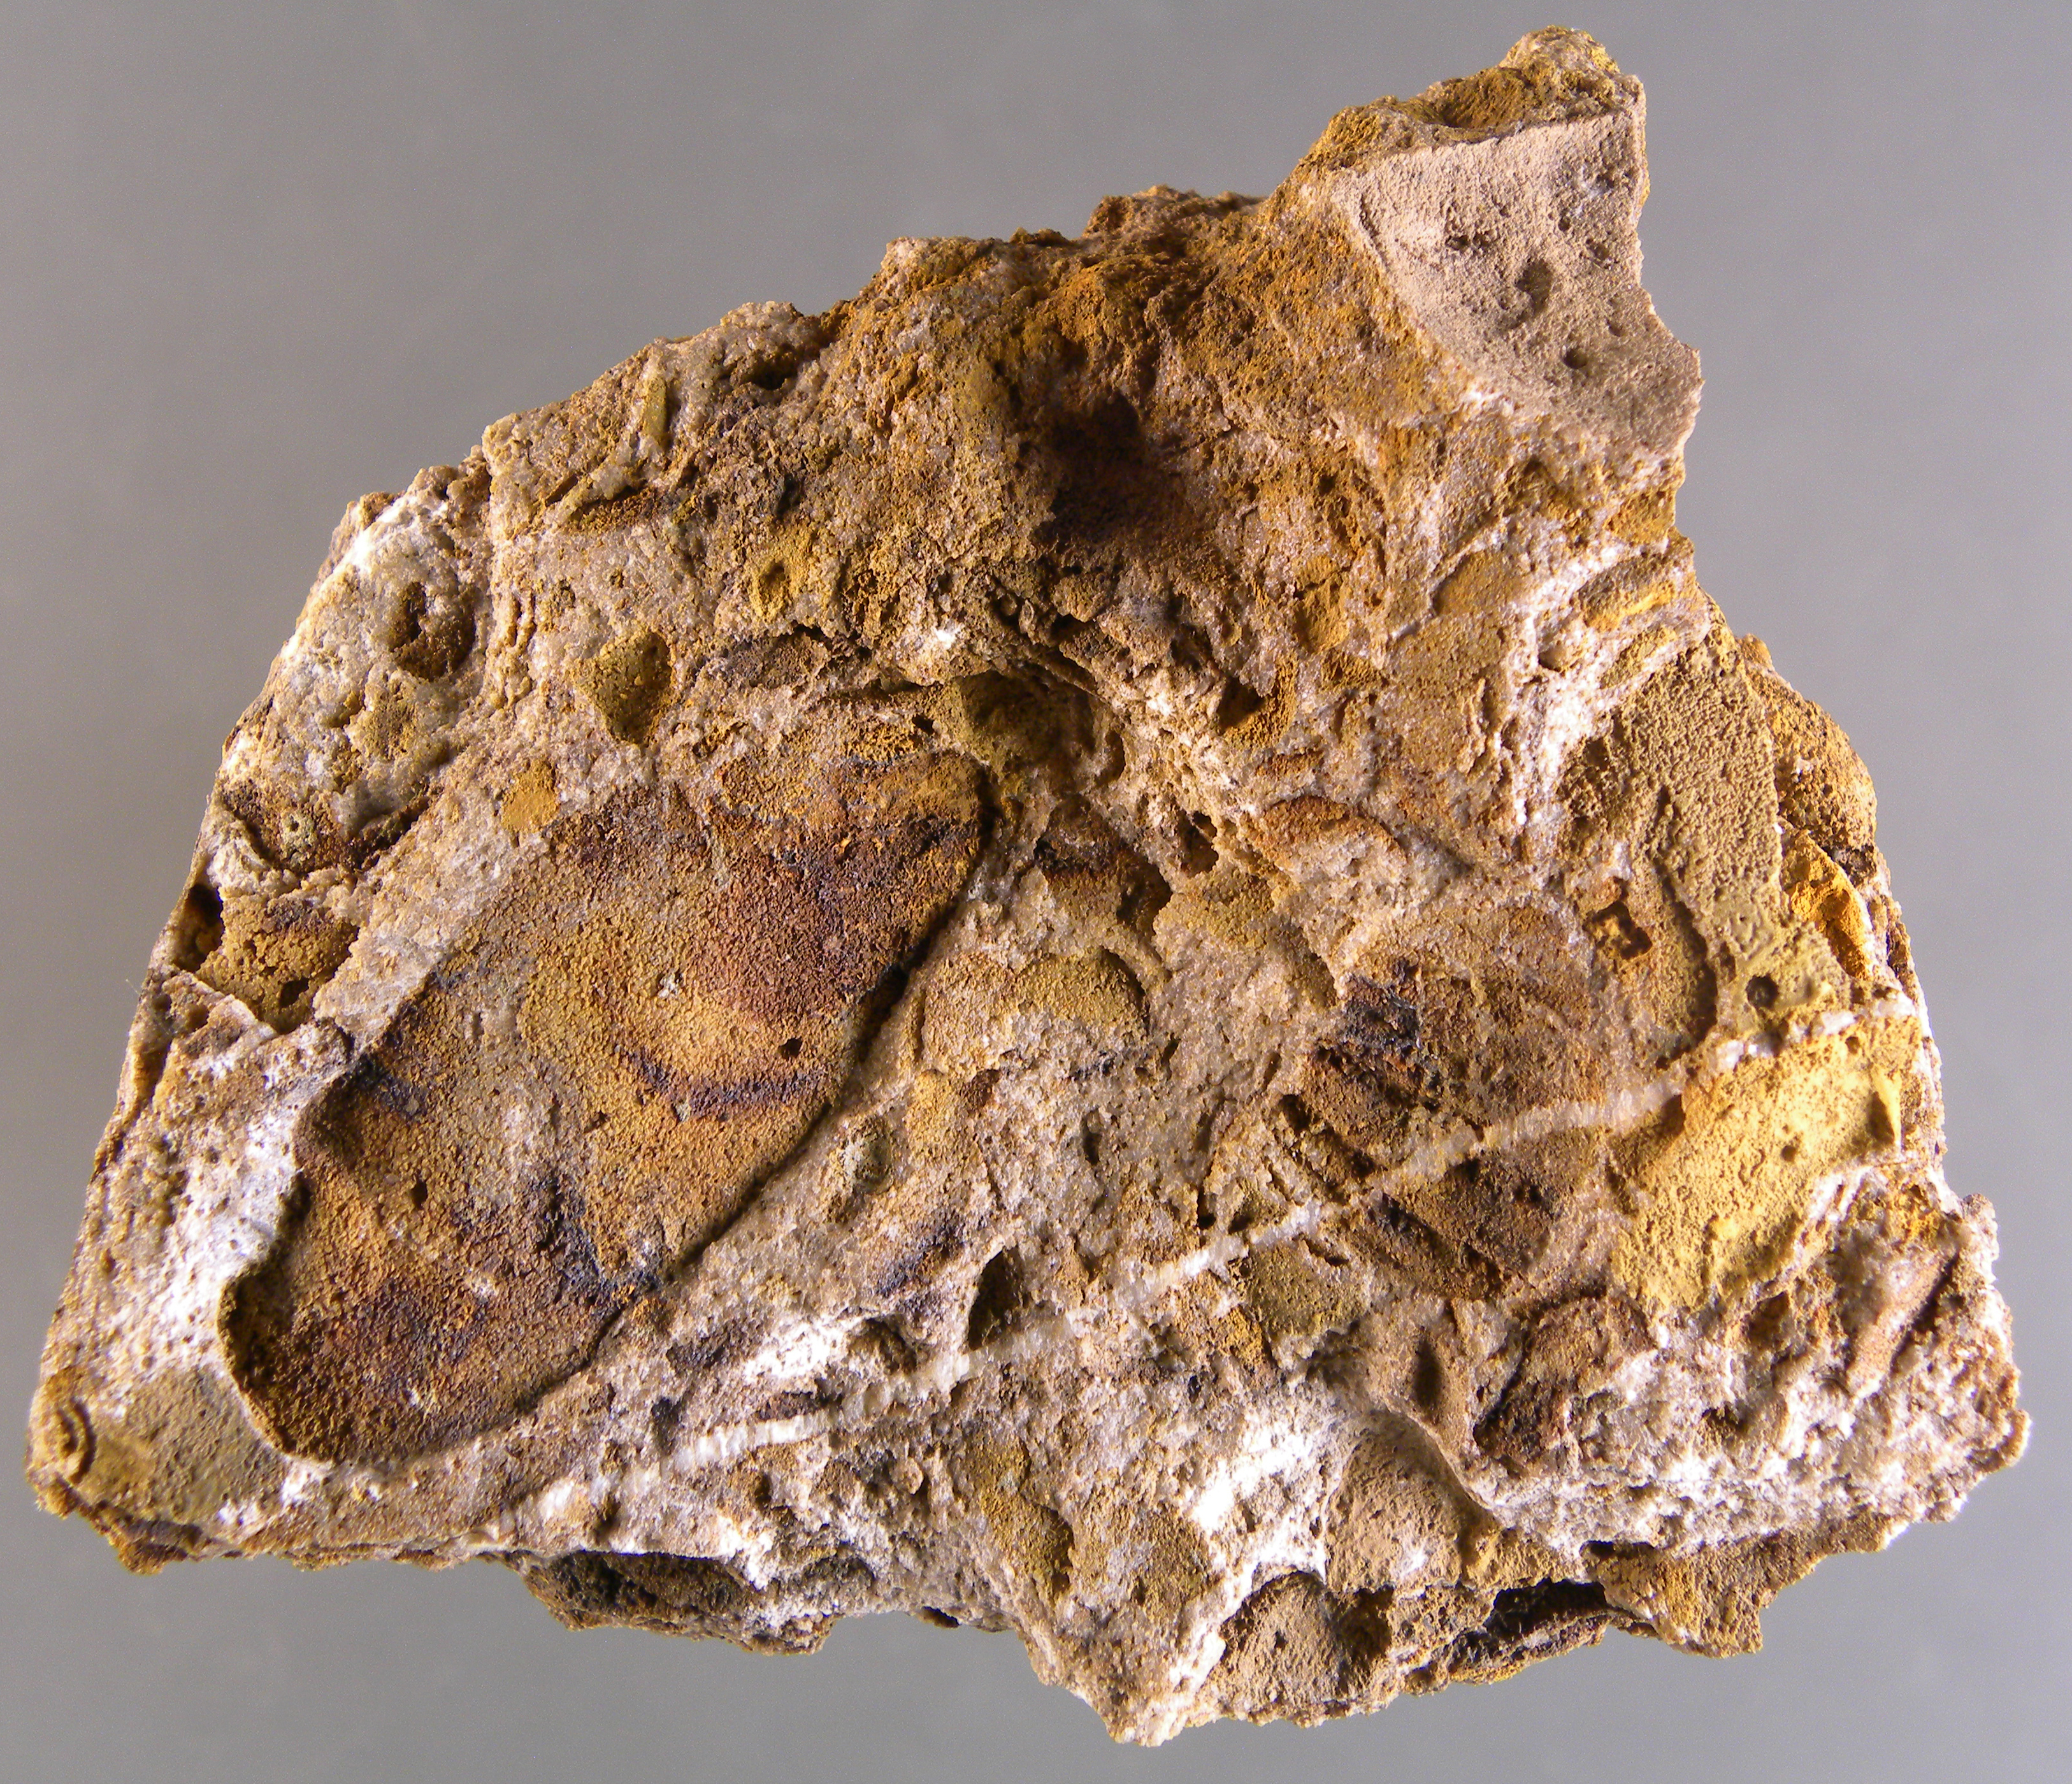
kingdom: Animalia
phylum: Mollusca
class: Bivalvia
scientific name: Bivalvia
